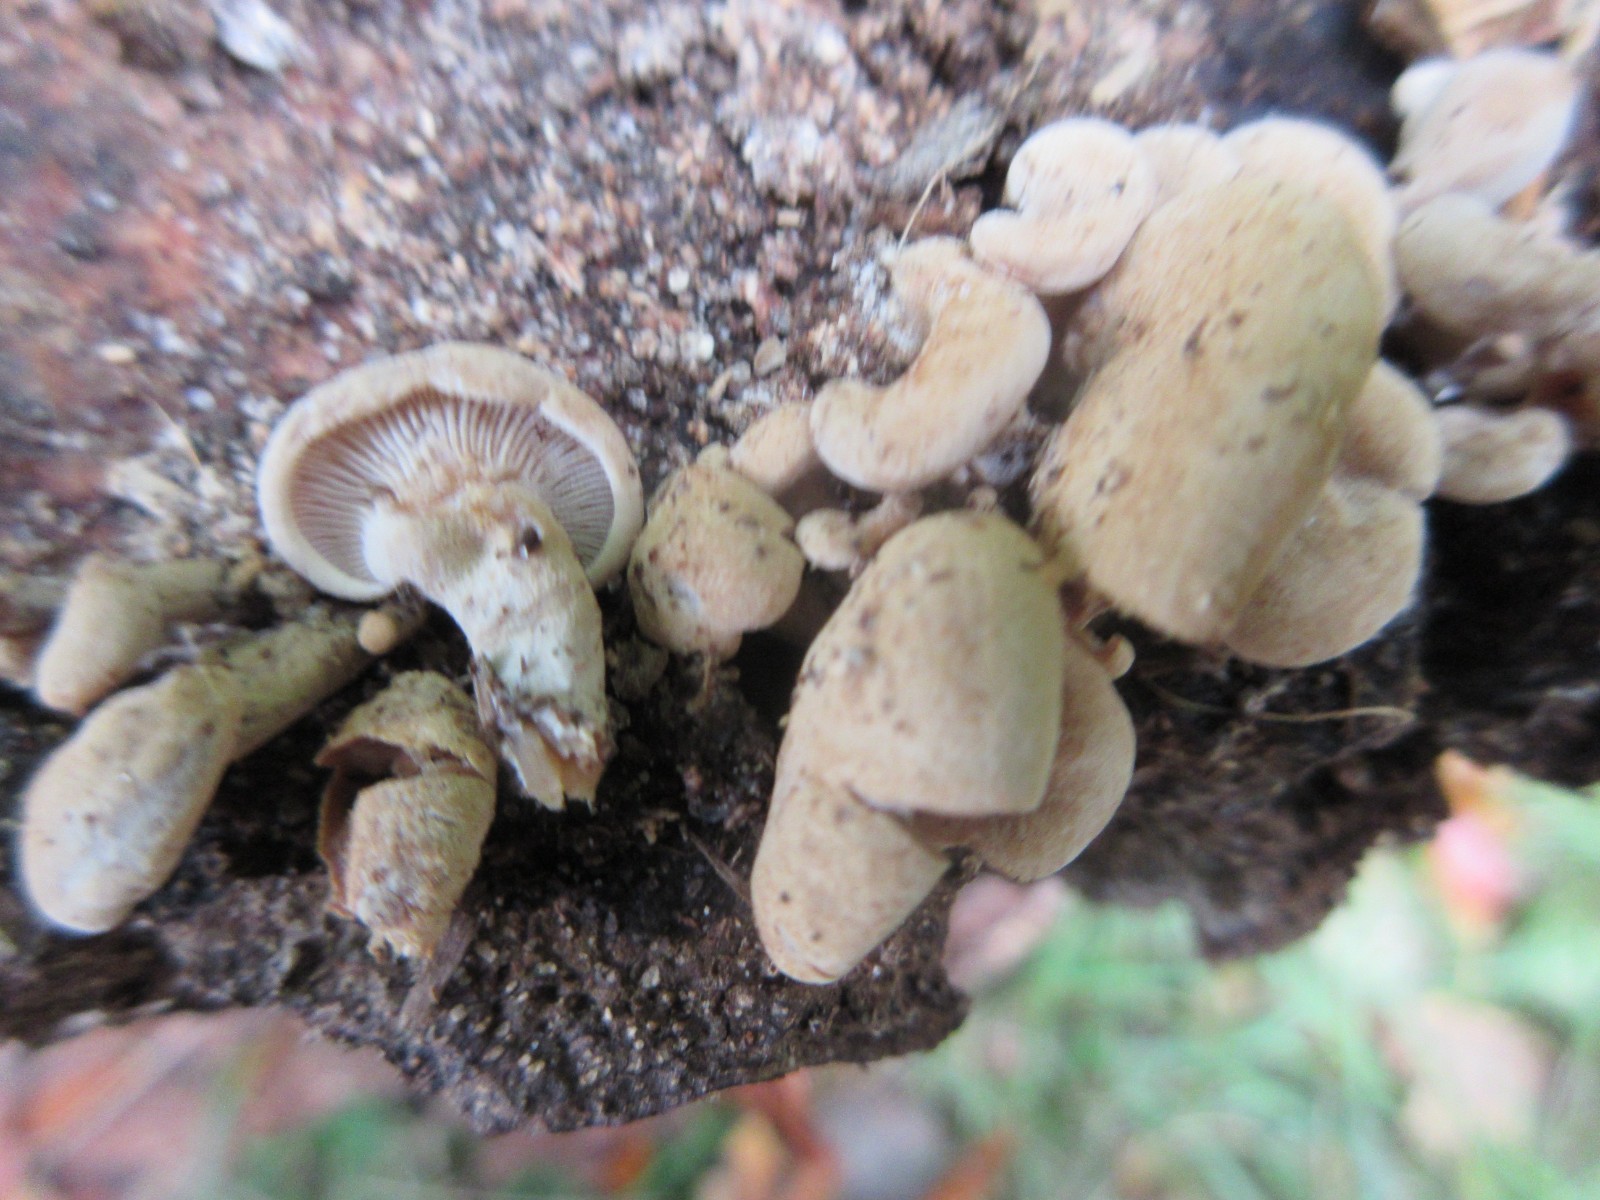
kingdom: Fungi
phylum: Basidiomycota
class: Agaricomycetes
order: Agaricales
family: Mycenaceae
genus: Panellus
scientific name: Panellus stipticus
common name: kliddet epaulethat
